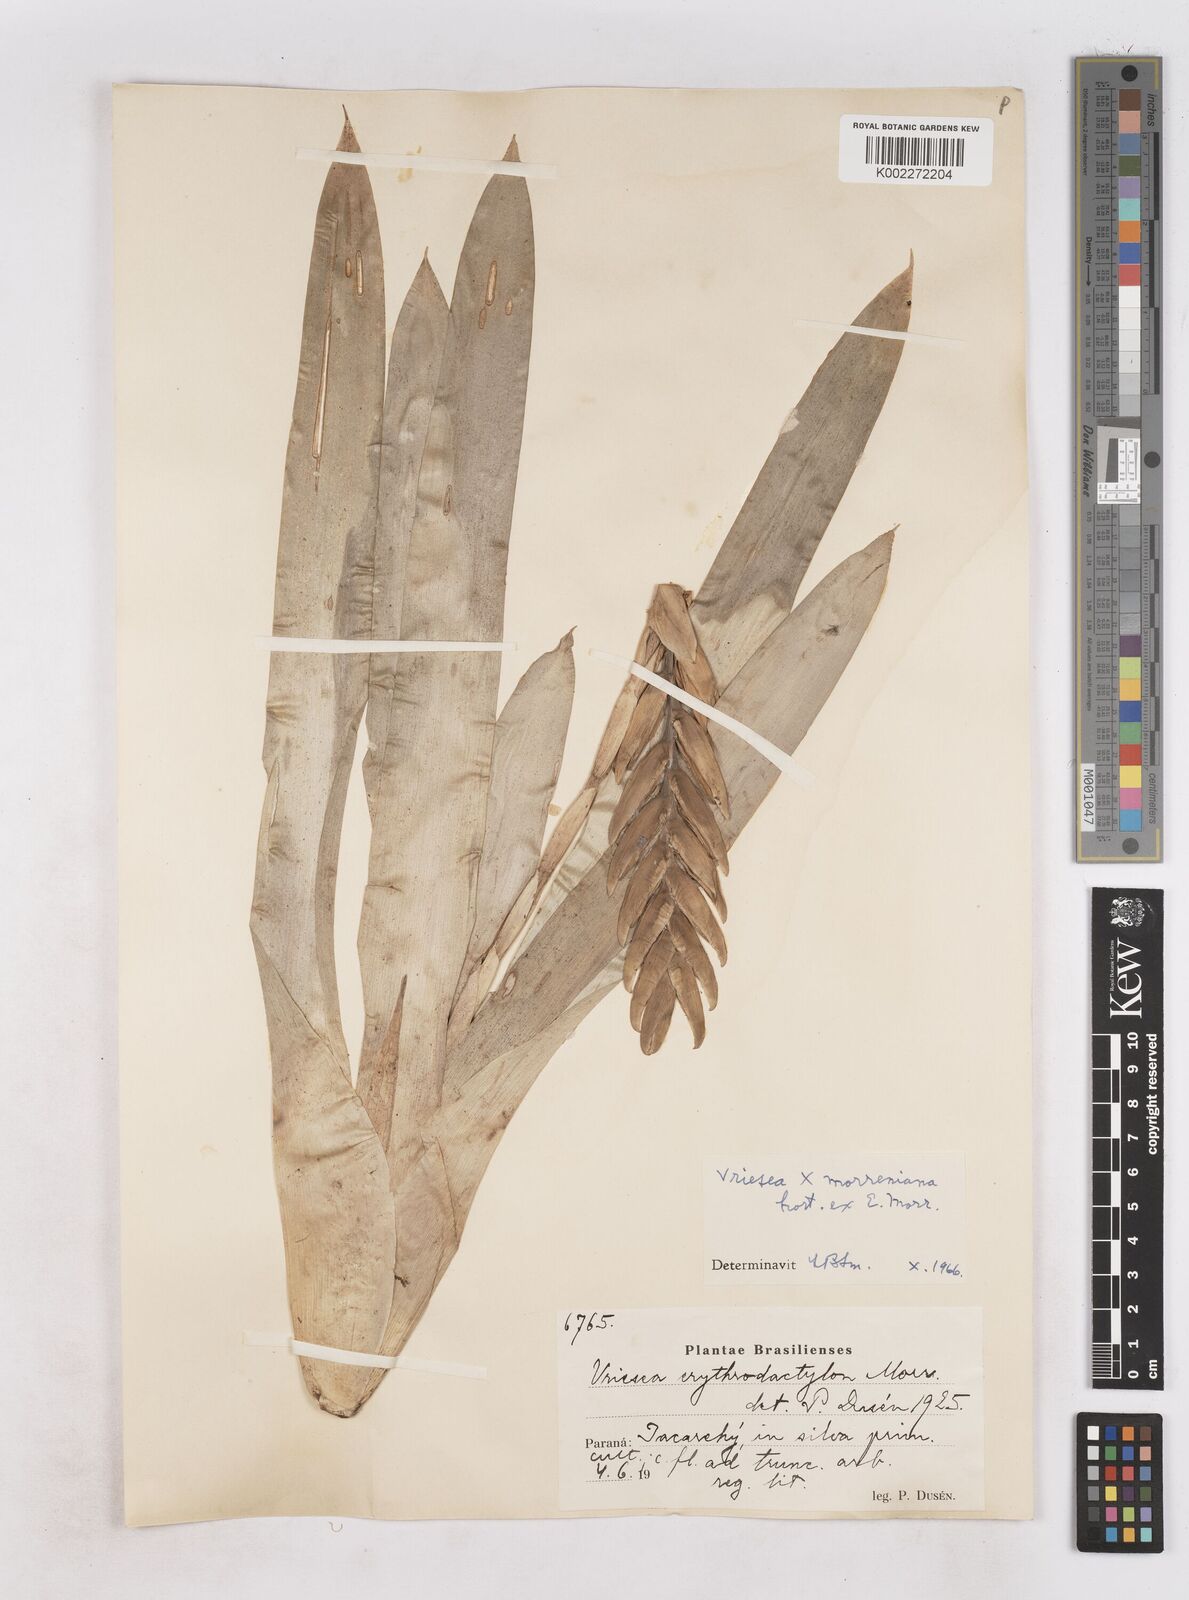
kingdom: Plantae
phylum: Tracheophyta
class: Liliopsida
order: Poales
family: Bromeliaceae
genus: Vriesea
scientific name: Vriesea morreni
